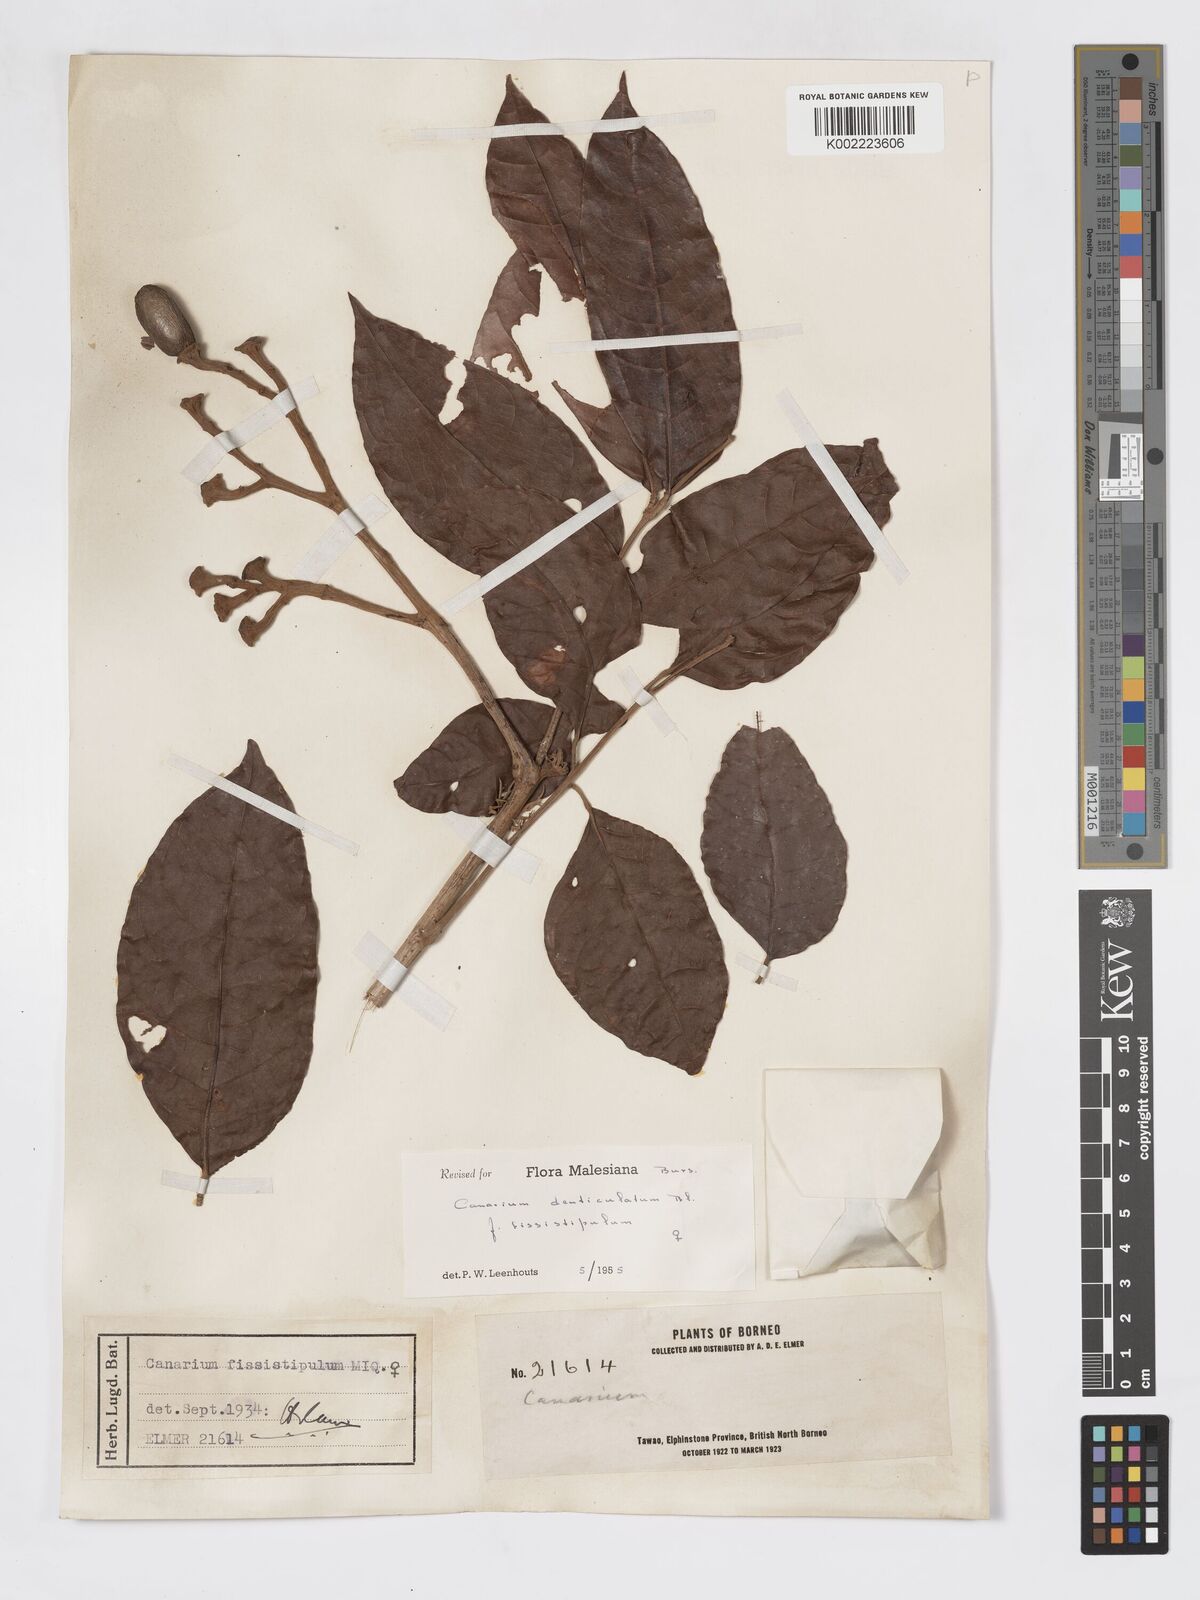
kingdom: Plantae
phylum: Tracheophyta
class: Magnoliopsida
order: Sapindales
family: Burseraceae
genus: Canarium
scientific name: Canarium denticulatum
